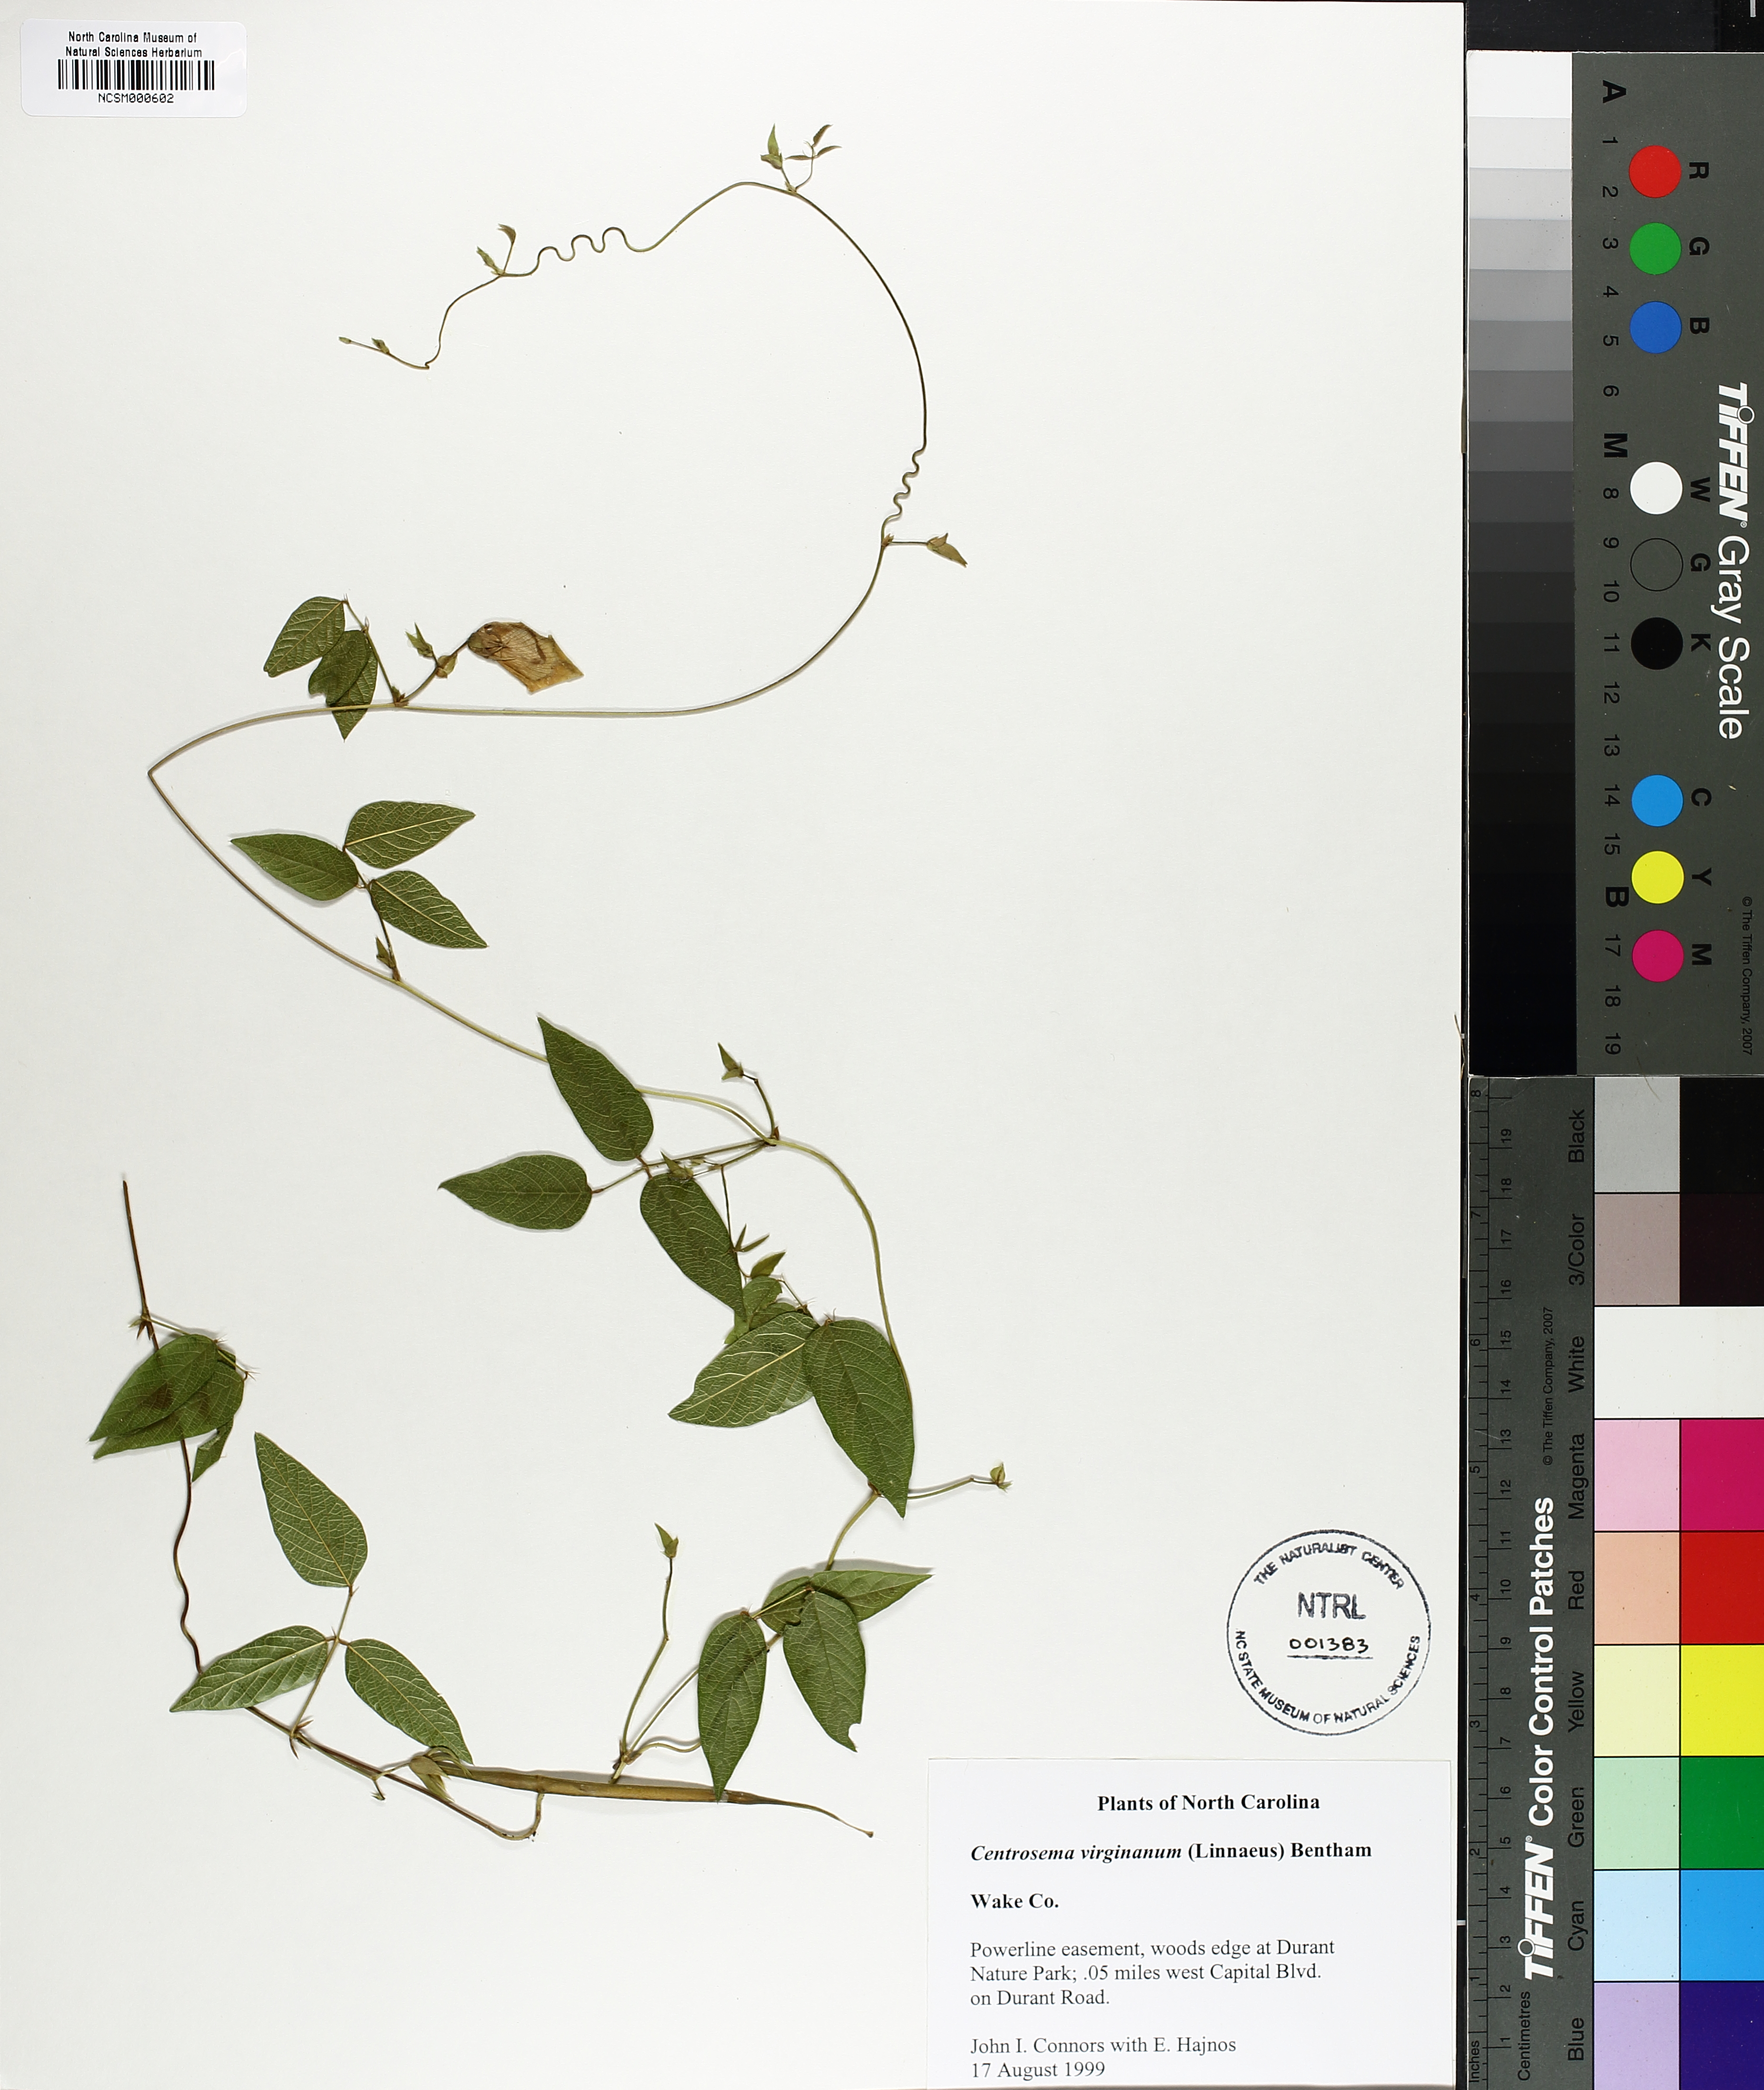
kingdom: Plantae
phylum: Tracheophyta
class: Magnoliopsida
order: Fabales
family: Fabaceae
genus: Centrosema
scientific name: Centrosema virginianum
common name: Butterfly-pea
